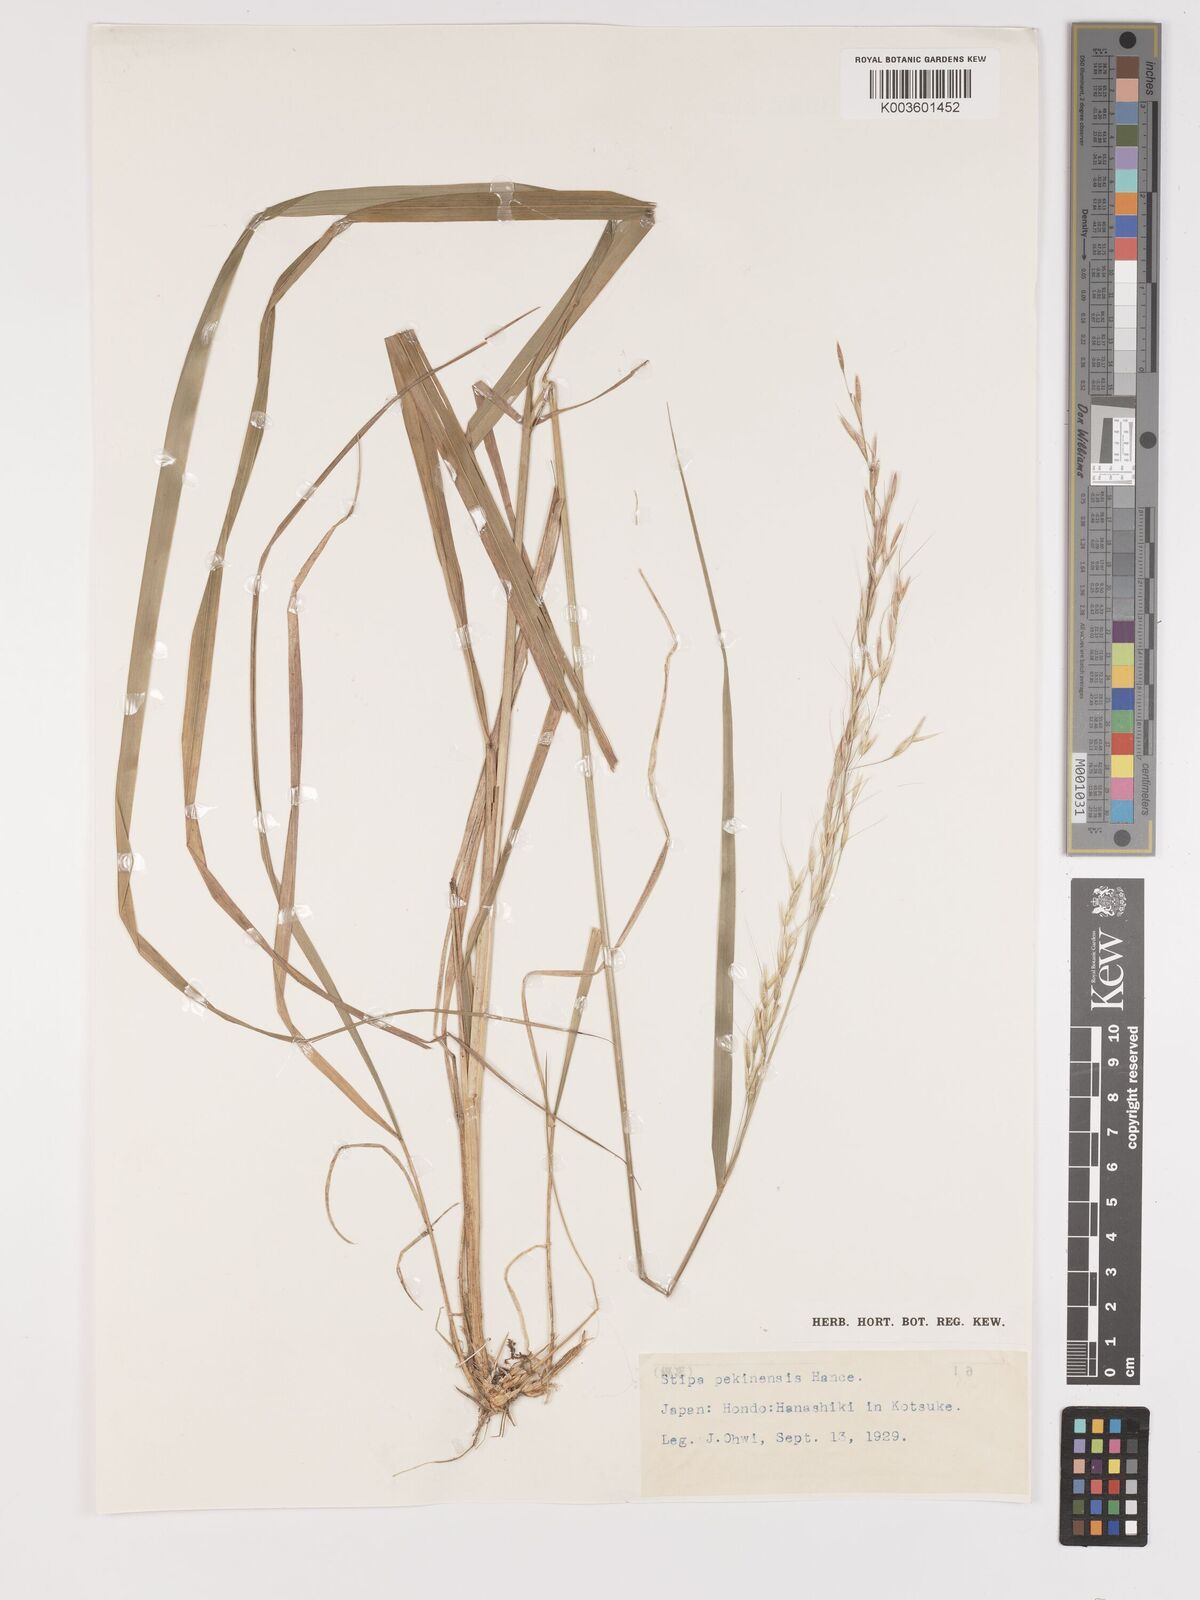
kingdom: Plantae
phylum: Tracheophyta
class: Liliopsida
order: Poales
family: Poaceae
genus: Achnatherum
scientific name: Achnatherum pekinense
